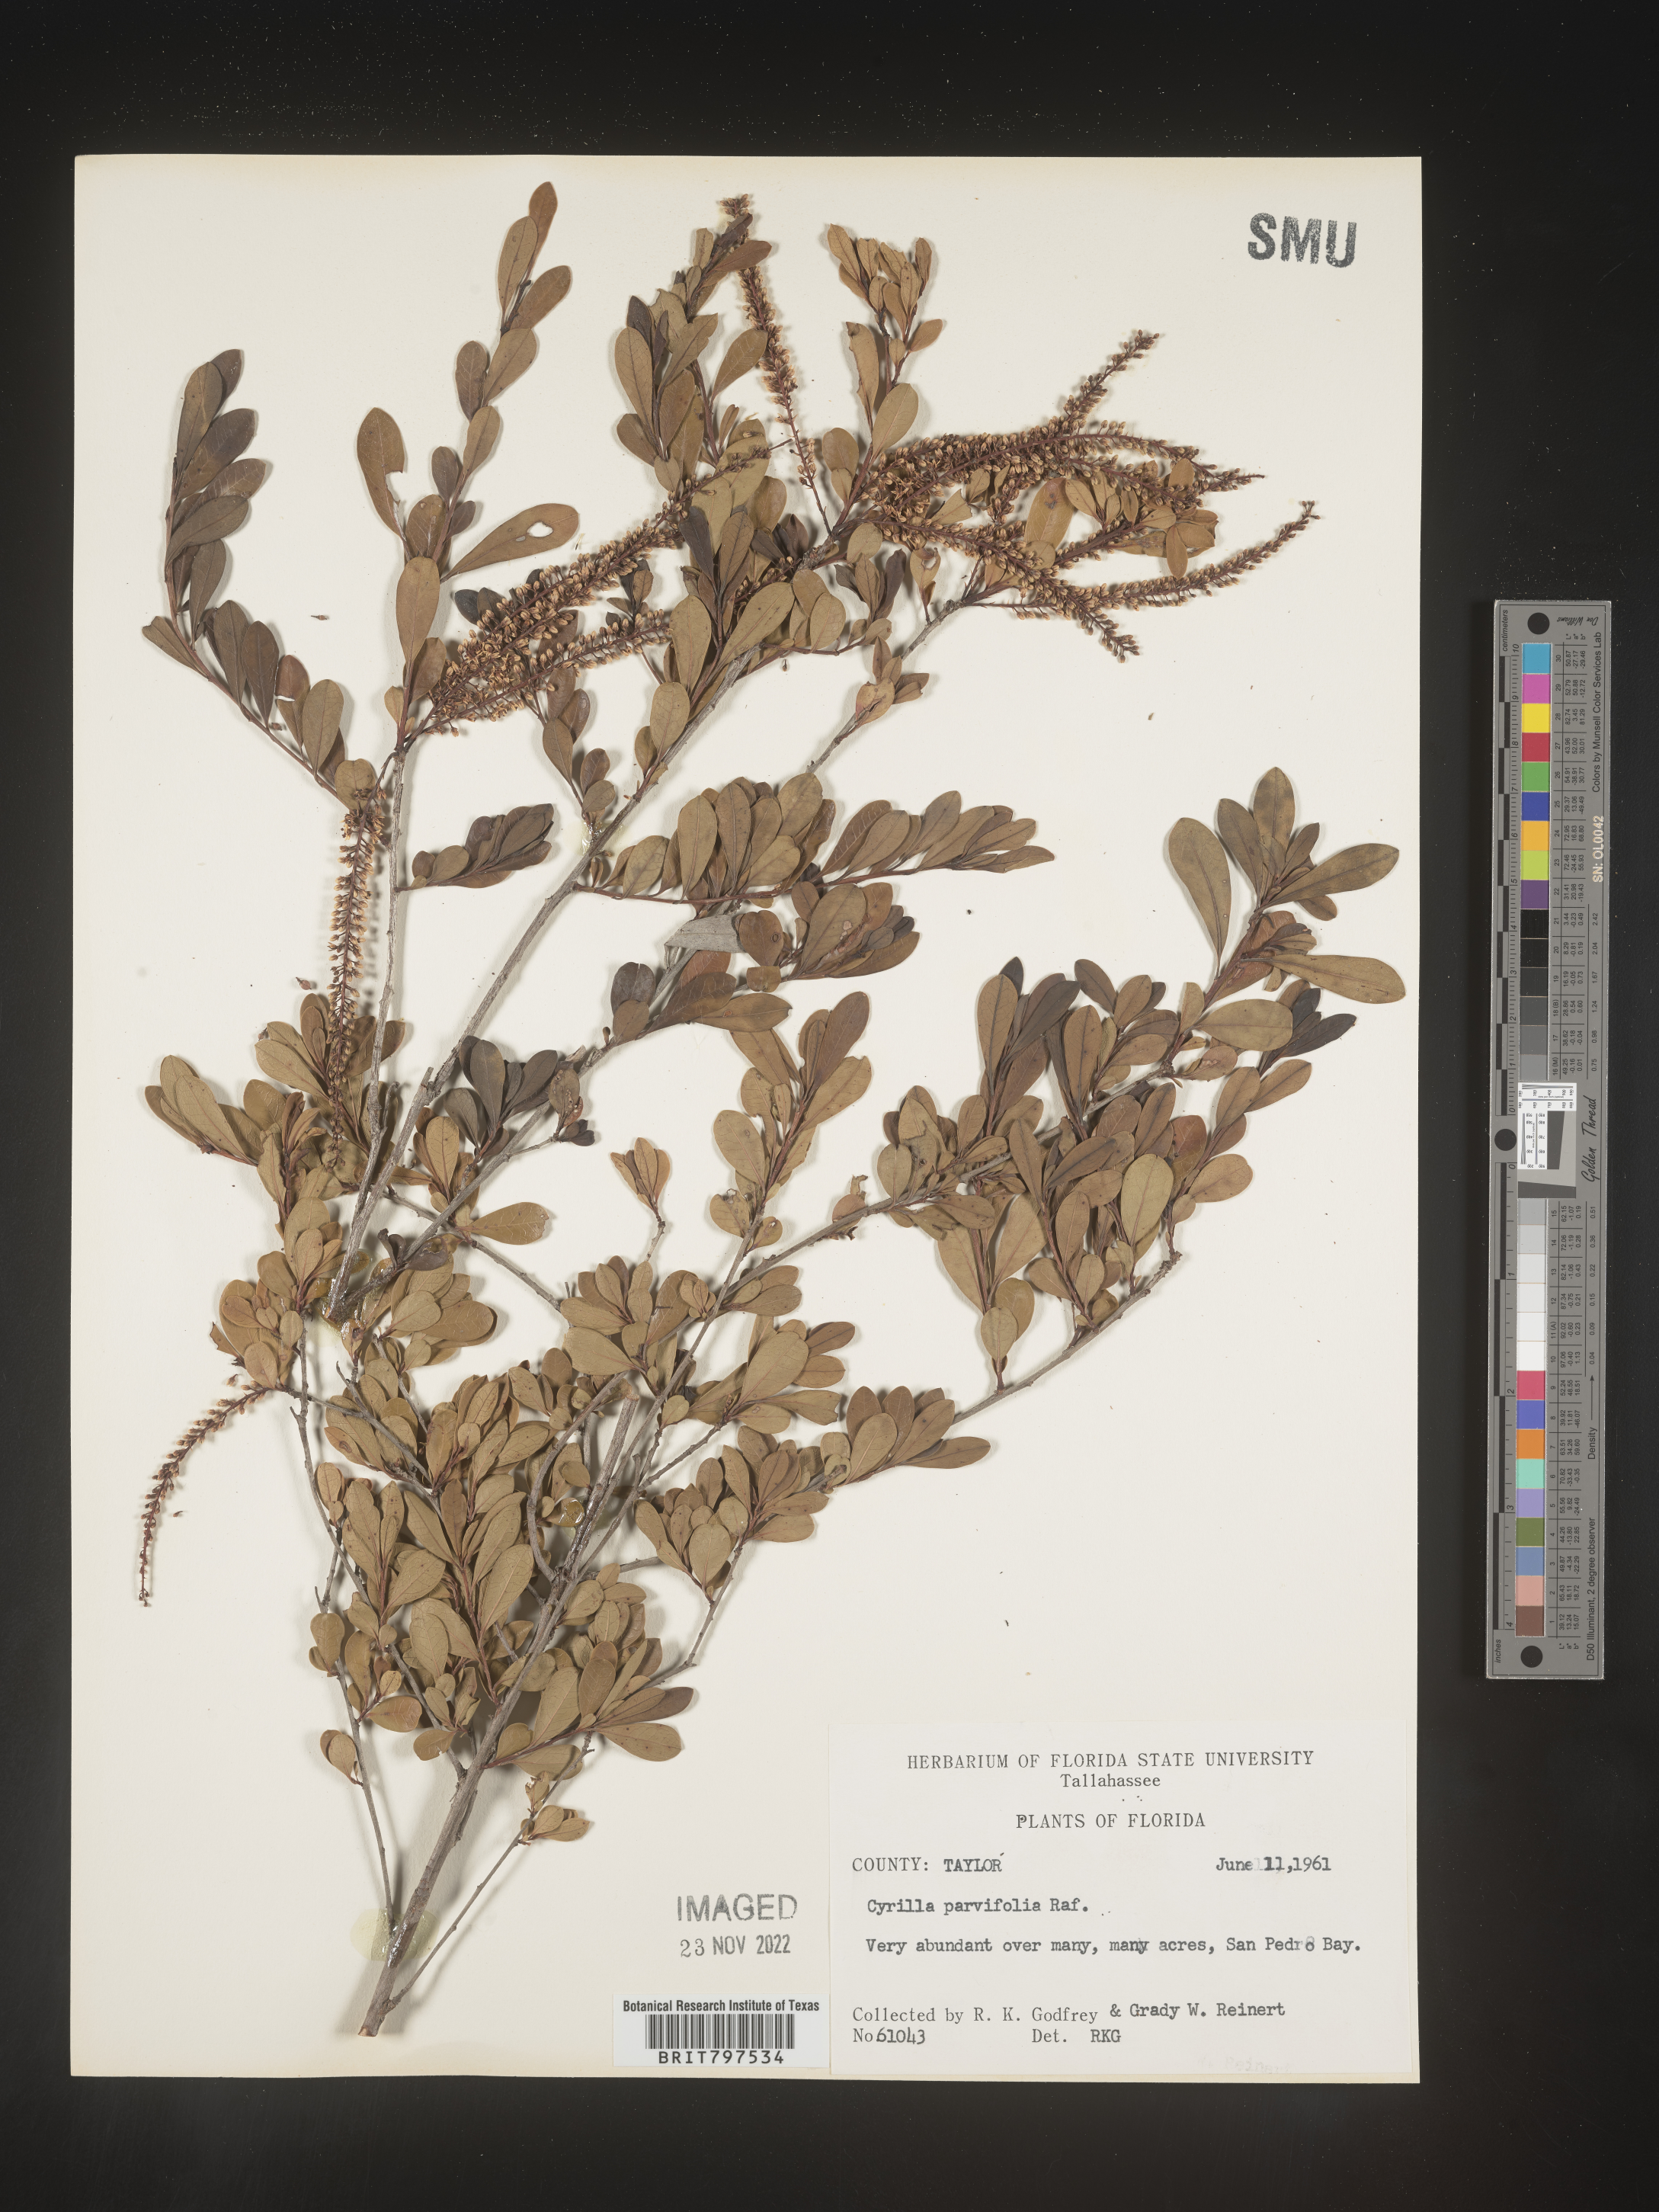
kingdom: Plantae
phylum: Tracheophyta
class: Magnoliopsida
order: Ericales
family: Cyrillaceae
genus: Cyrilla
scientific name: Cyrilla racemiflora
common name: Black titi
